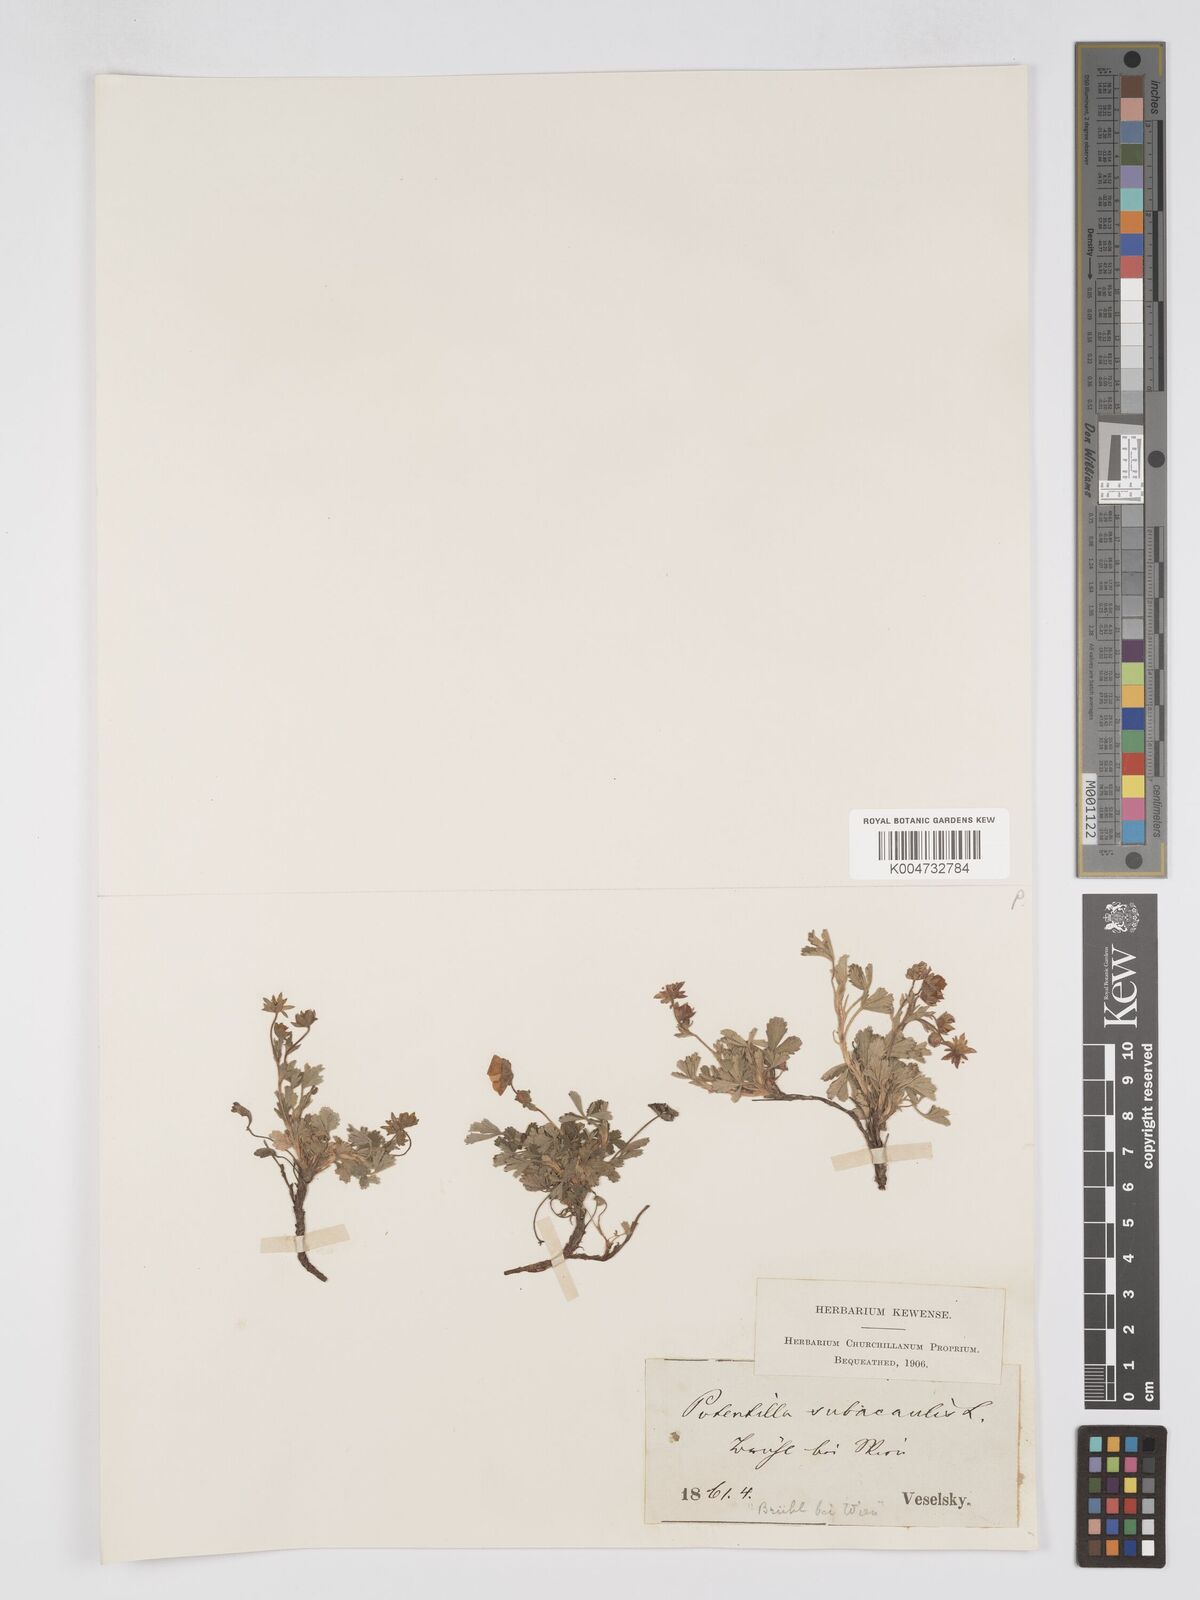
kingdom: Plantae
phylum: Tracheophyta
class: Magnoliopsida
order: Rosales
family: Rosaceae
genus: Potentilla
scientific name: Potentilla
